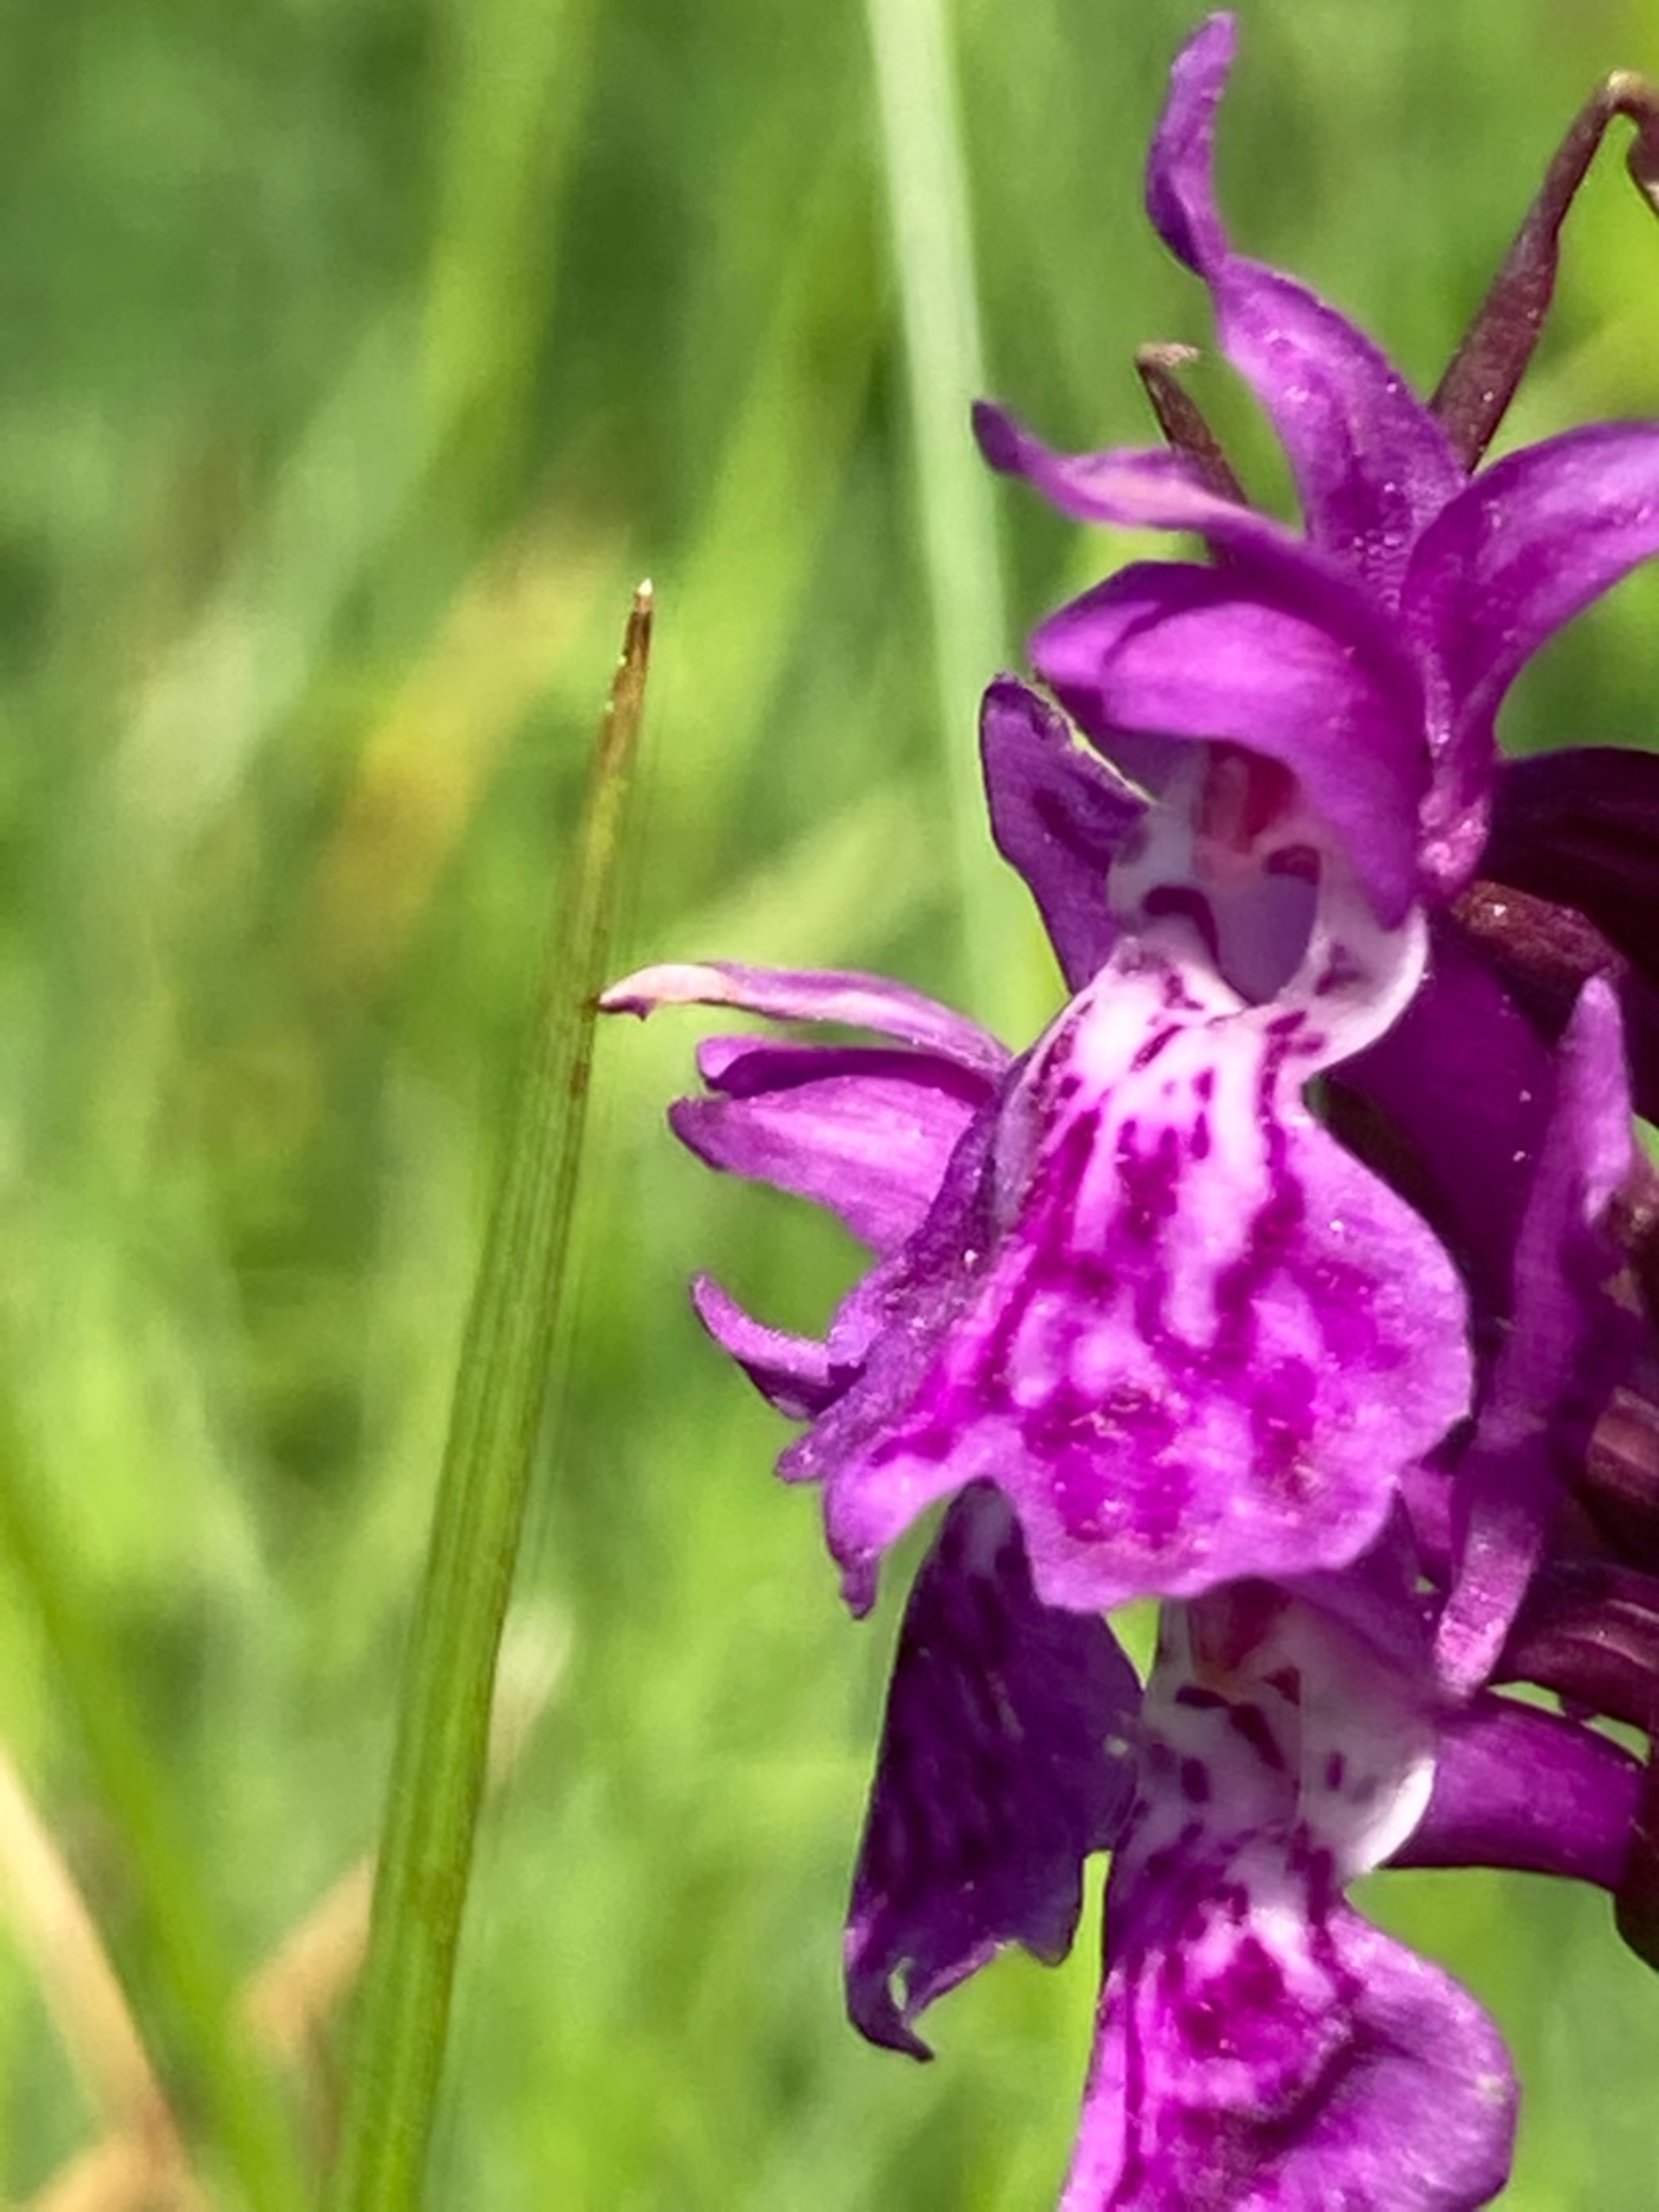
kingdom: Plantae
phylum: Tracheophyta
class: Liliopsida
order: Asparagales
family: Orchidaceae
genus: Dactylorhiza
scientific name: Dactylorhiza majalis
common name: Maj-gøgeurt
